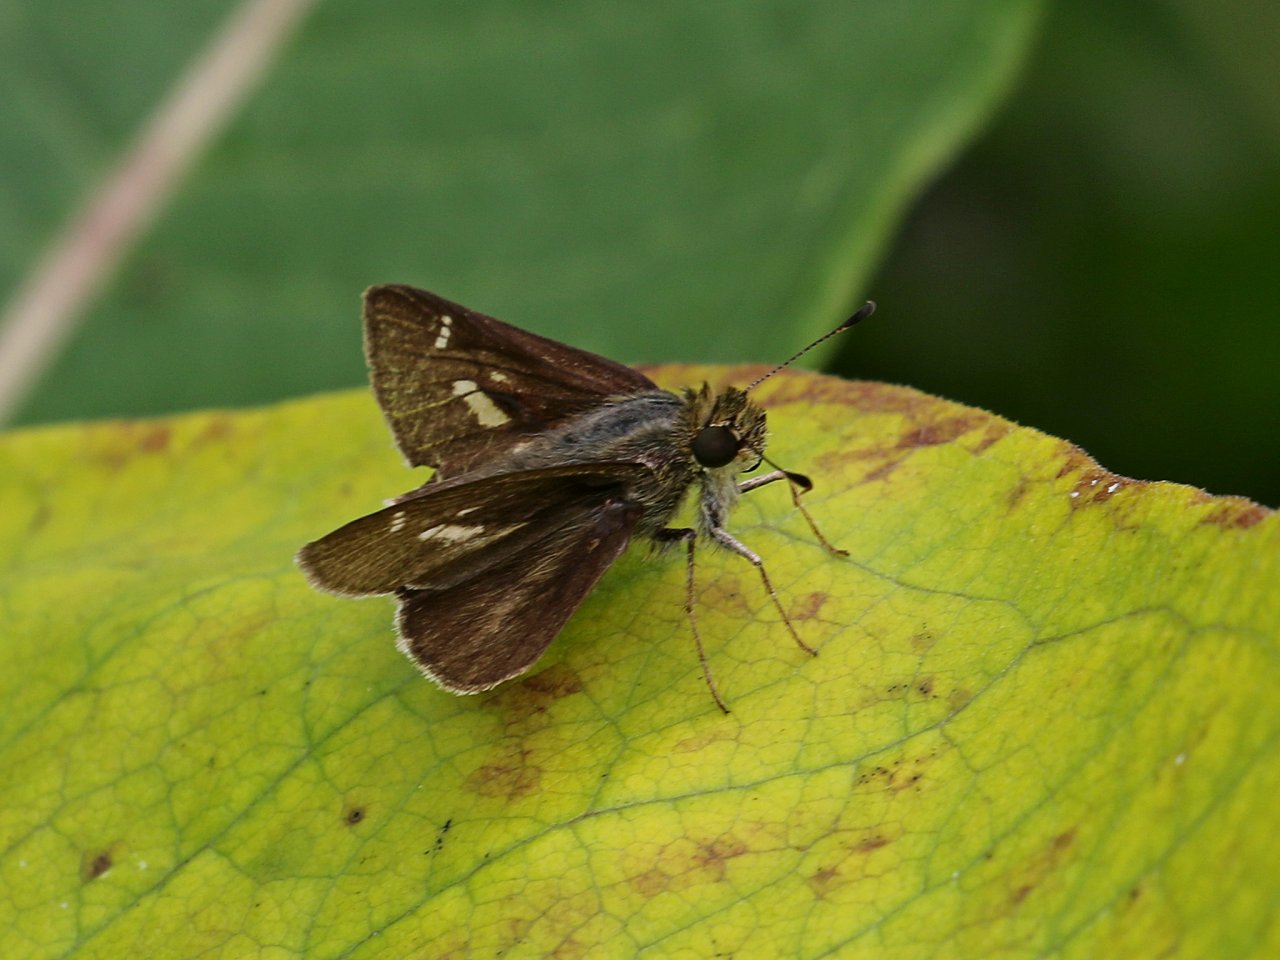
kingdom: Animalia
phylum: Arthropoda
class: Insecta
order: Lepidoptera
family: Hesperiidae
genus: Vernia
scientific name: Vernia verna
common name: Little Glassywing
